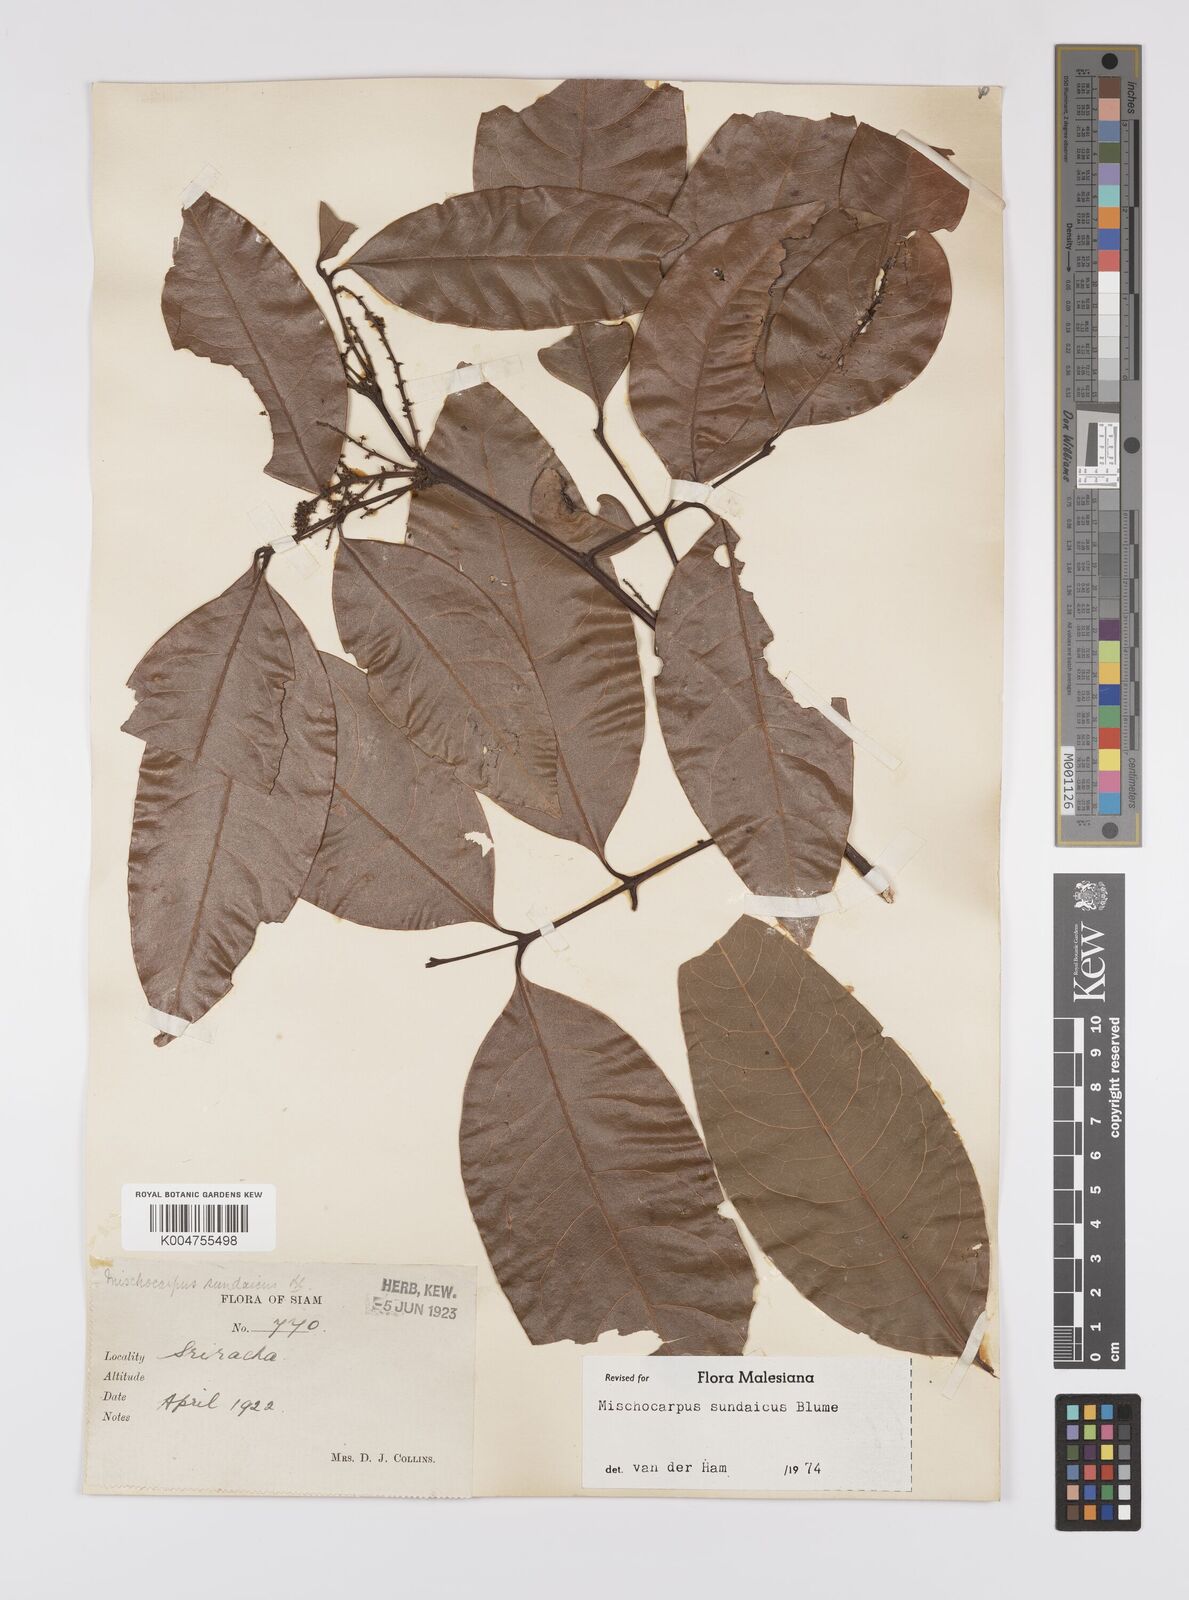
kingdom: Plantae
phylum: Tracheophyta
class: Magnoliopsida
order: Sapindales
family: Sapindaceae
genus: Mischocarpus
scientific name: Mischocarpus sundaicus
